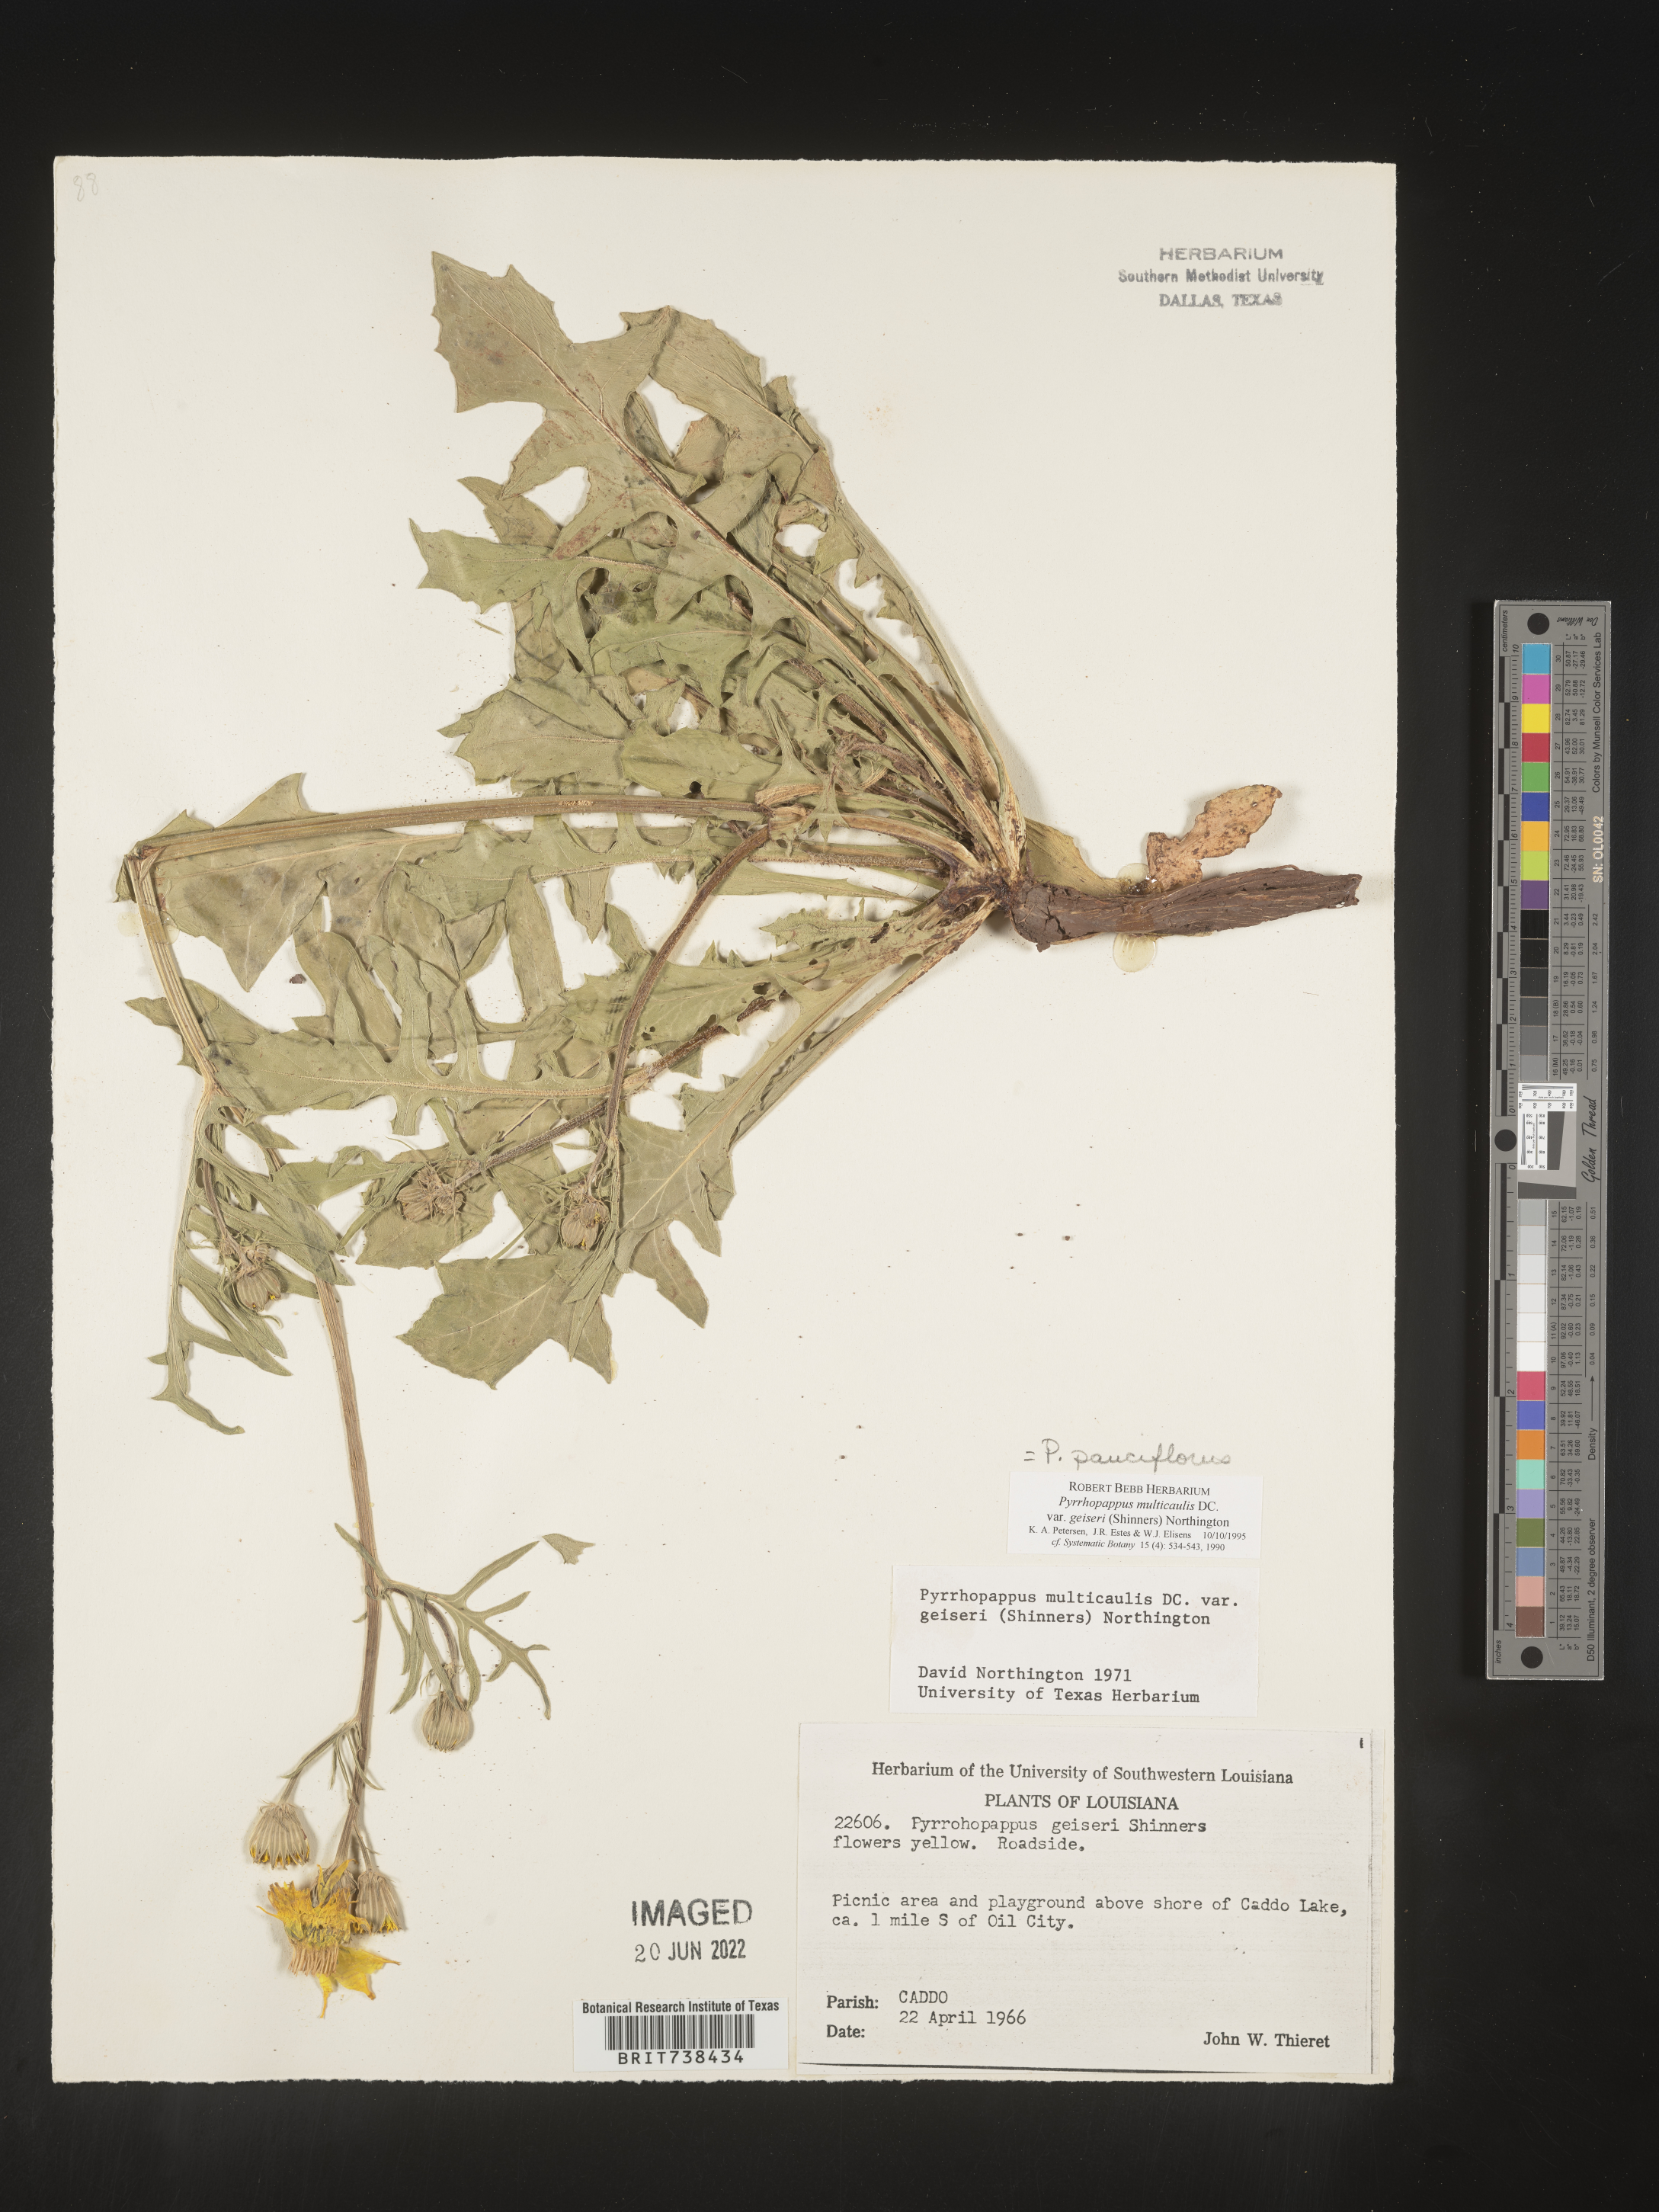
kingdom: Plantae
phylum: Tracheophyta
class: Magnoliopsida
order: Asterales
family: Asteraceae
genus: Pyrrhopappus
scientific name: Pyrrhopappus pauciflorus
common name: Texas false dandelion
